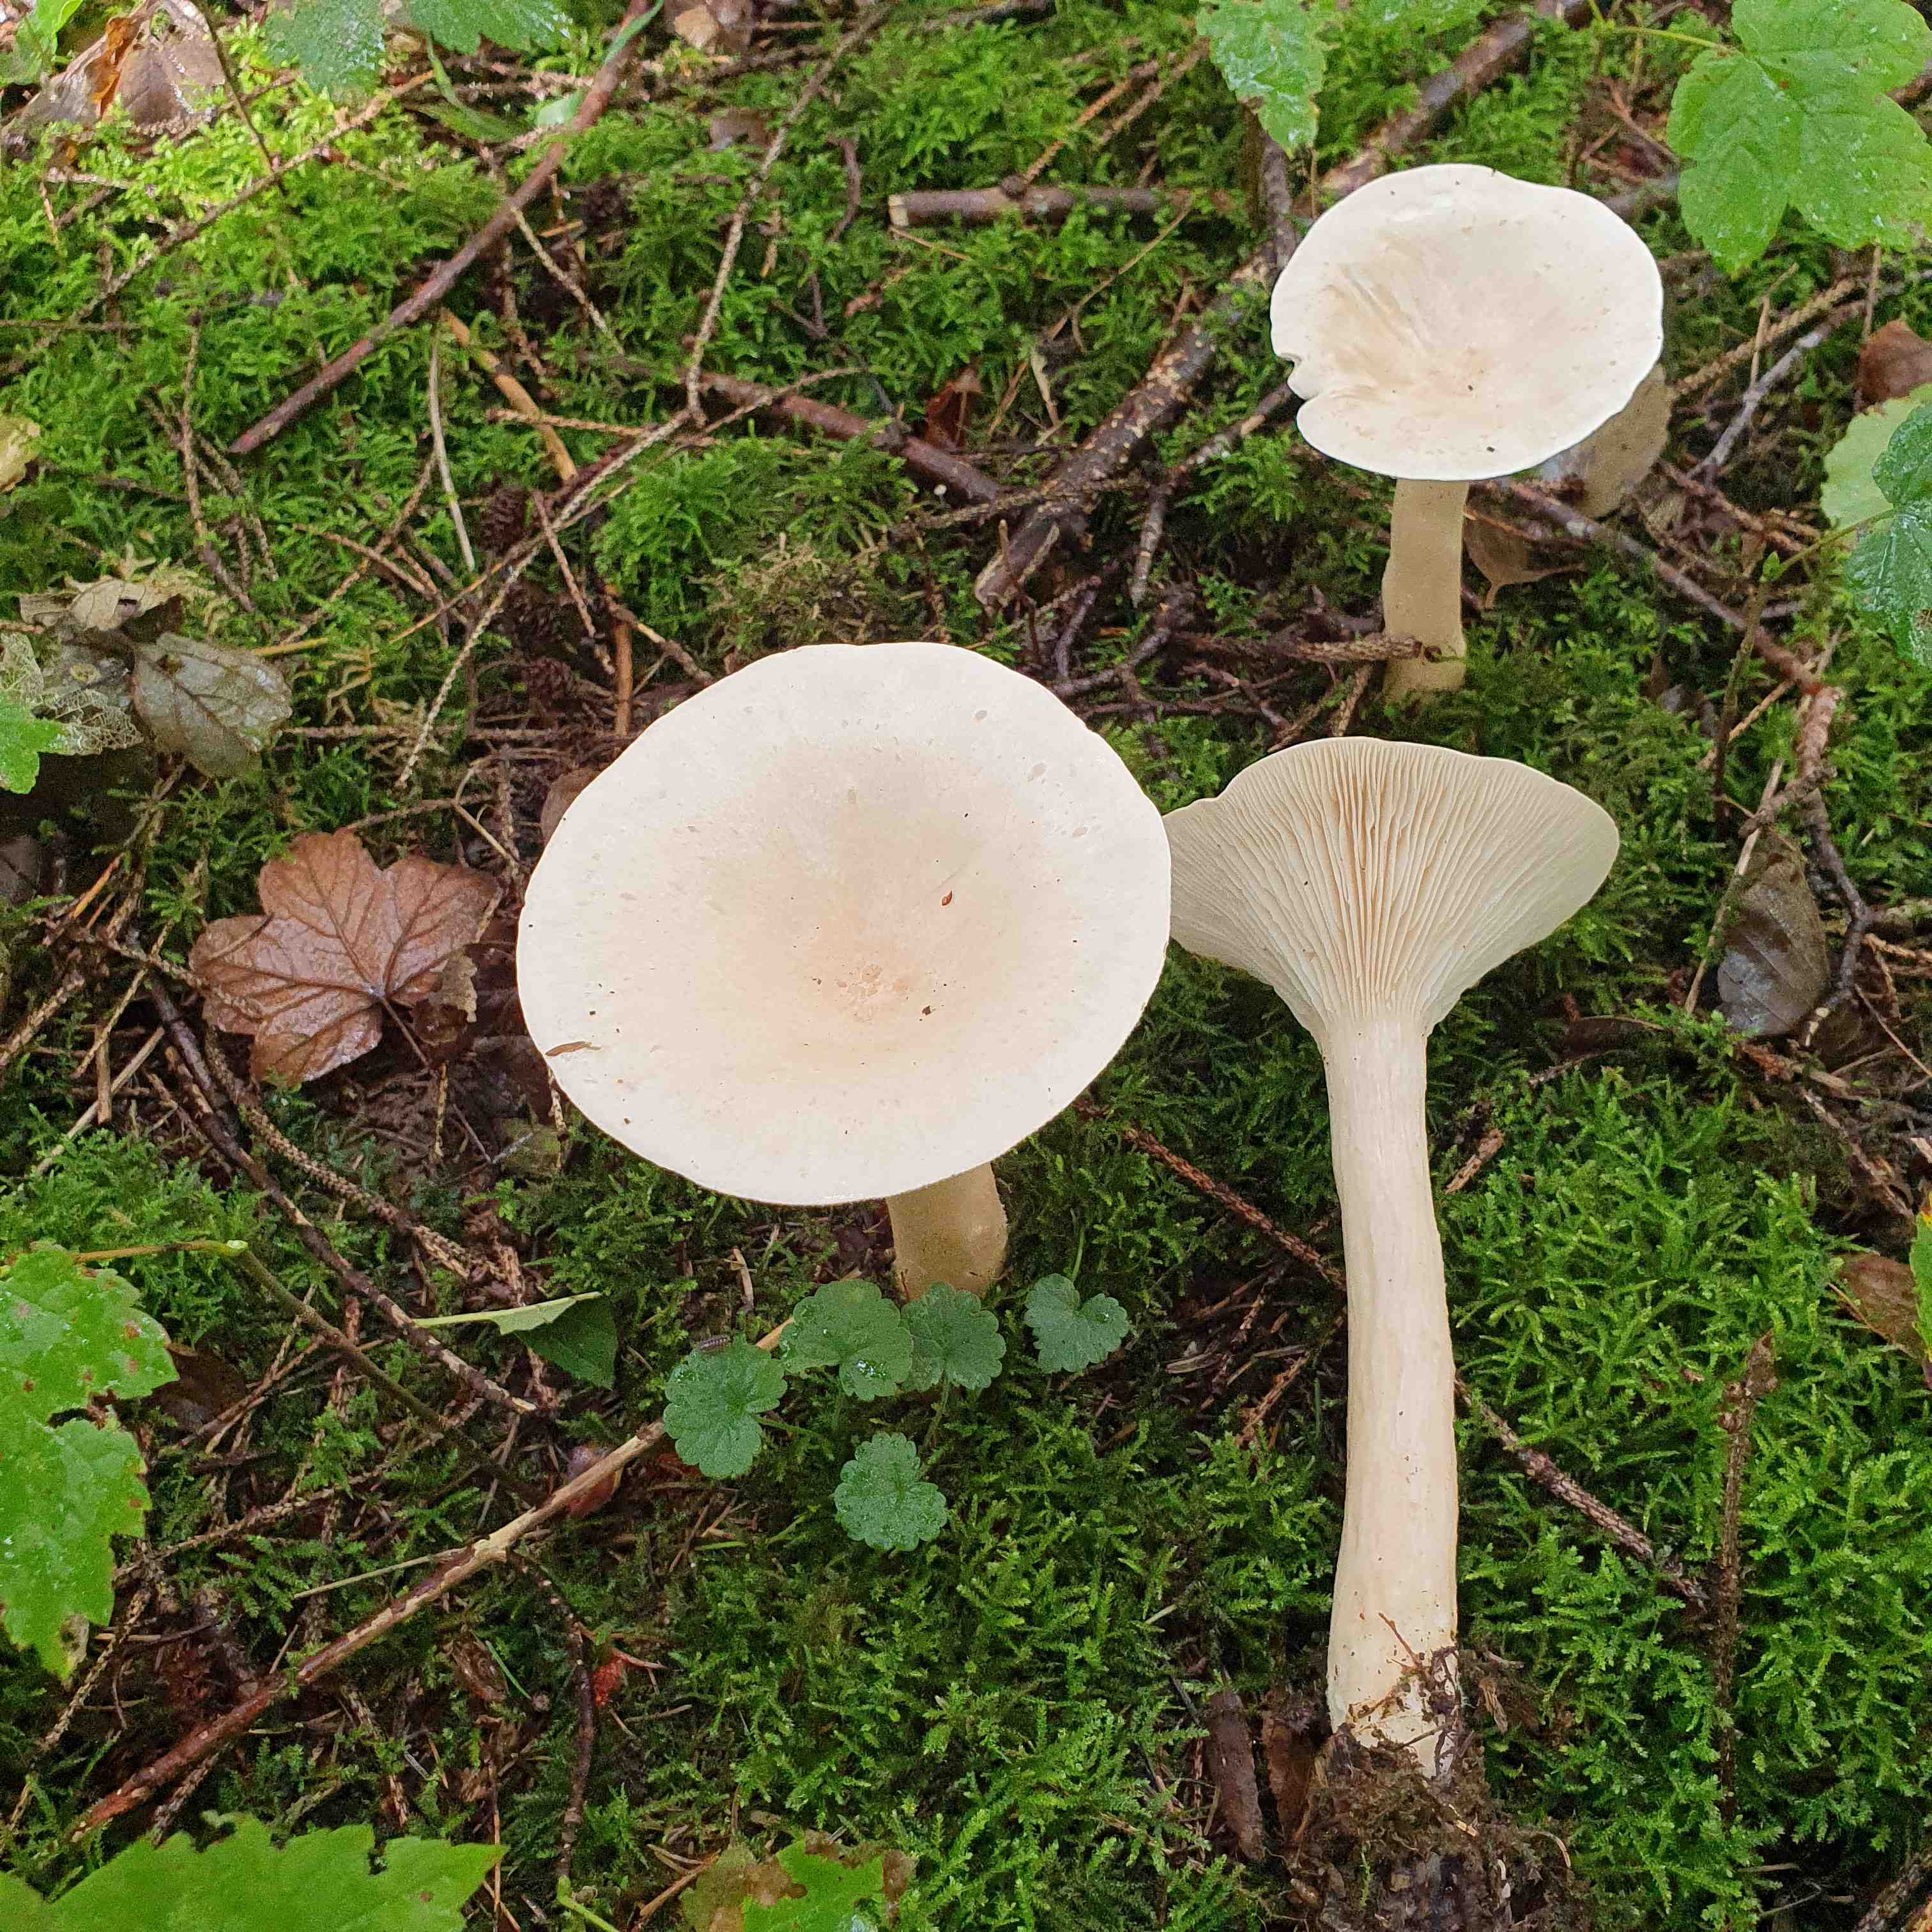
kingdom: Fungi
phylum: Basidiomycota
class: Agaricomycetes
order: Agaricales
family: Tricholomataceae
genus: Infundibulicybe
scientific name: Infundibulicybe geotropa
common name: stor tragthat
